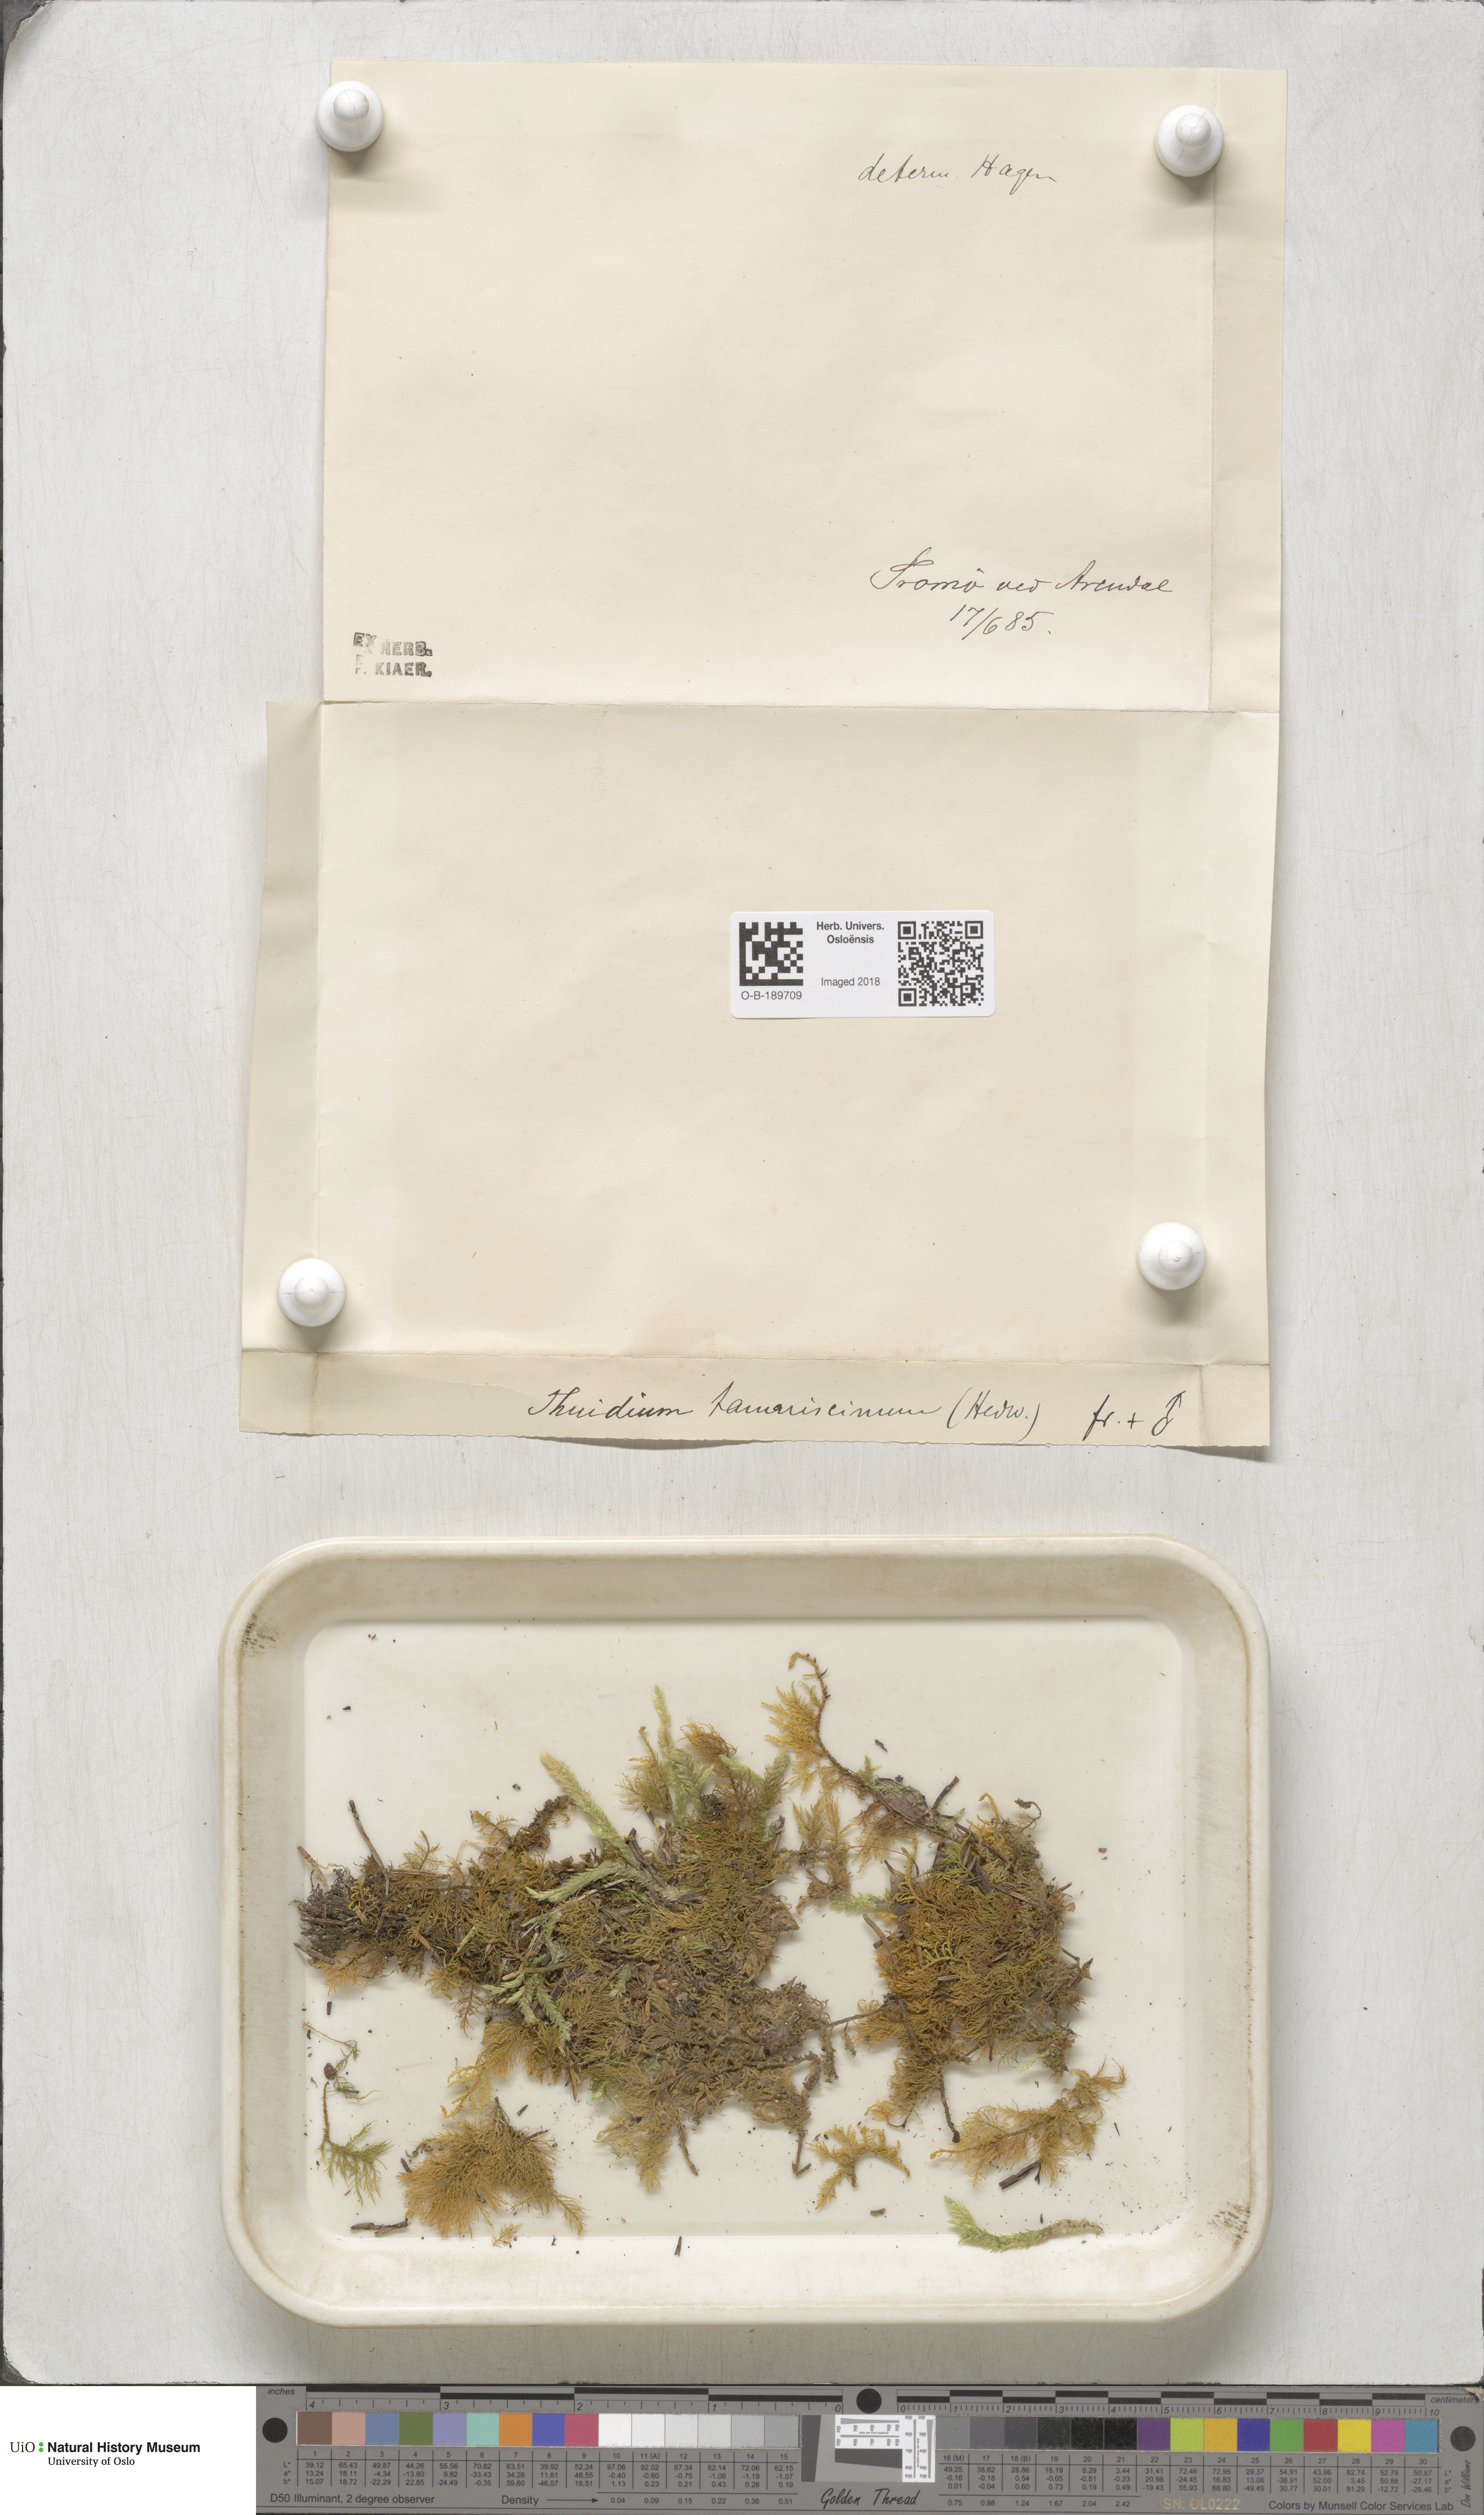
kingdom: Plantae
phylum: Bryophyta
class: Bryopsida
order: Hypnales
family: Thuidiaceae
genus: Thuidium
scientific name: Thuidium tamariscinum
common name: Common tamarisk-moss
